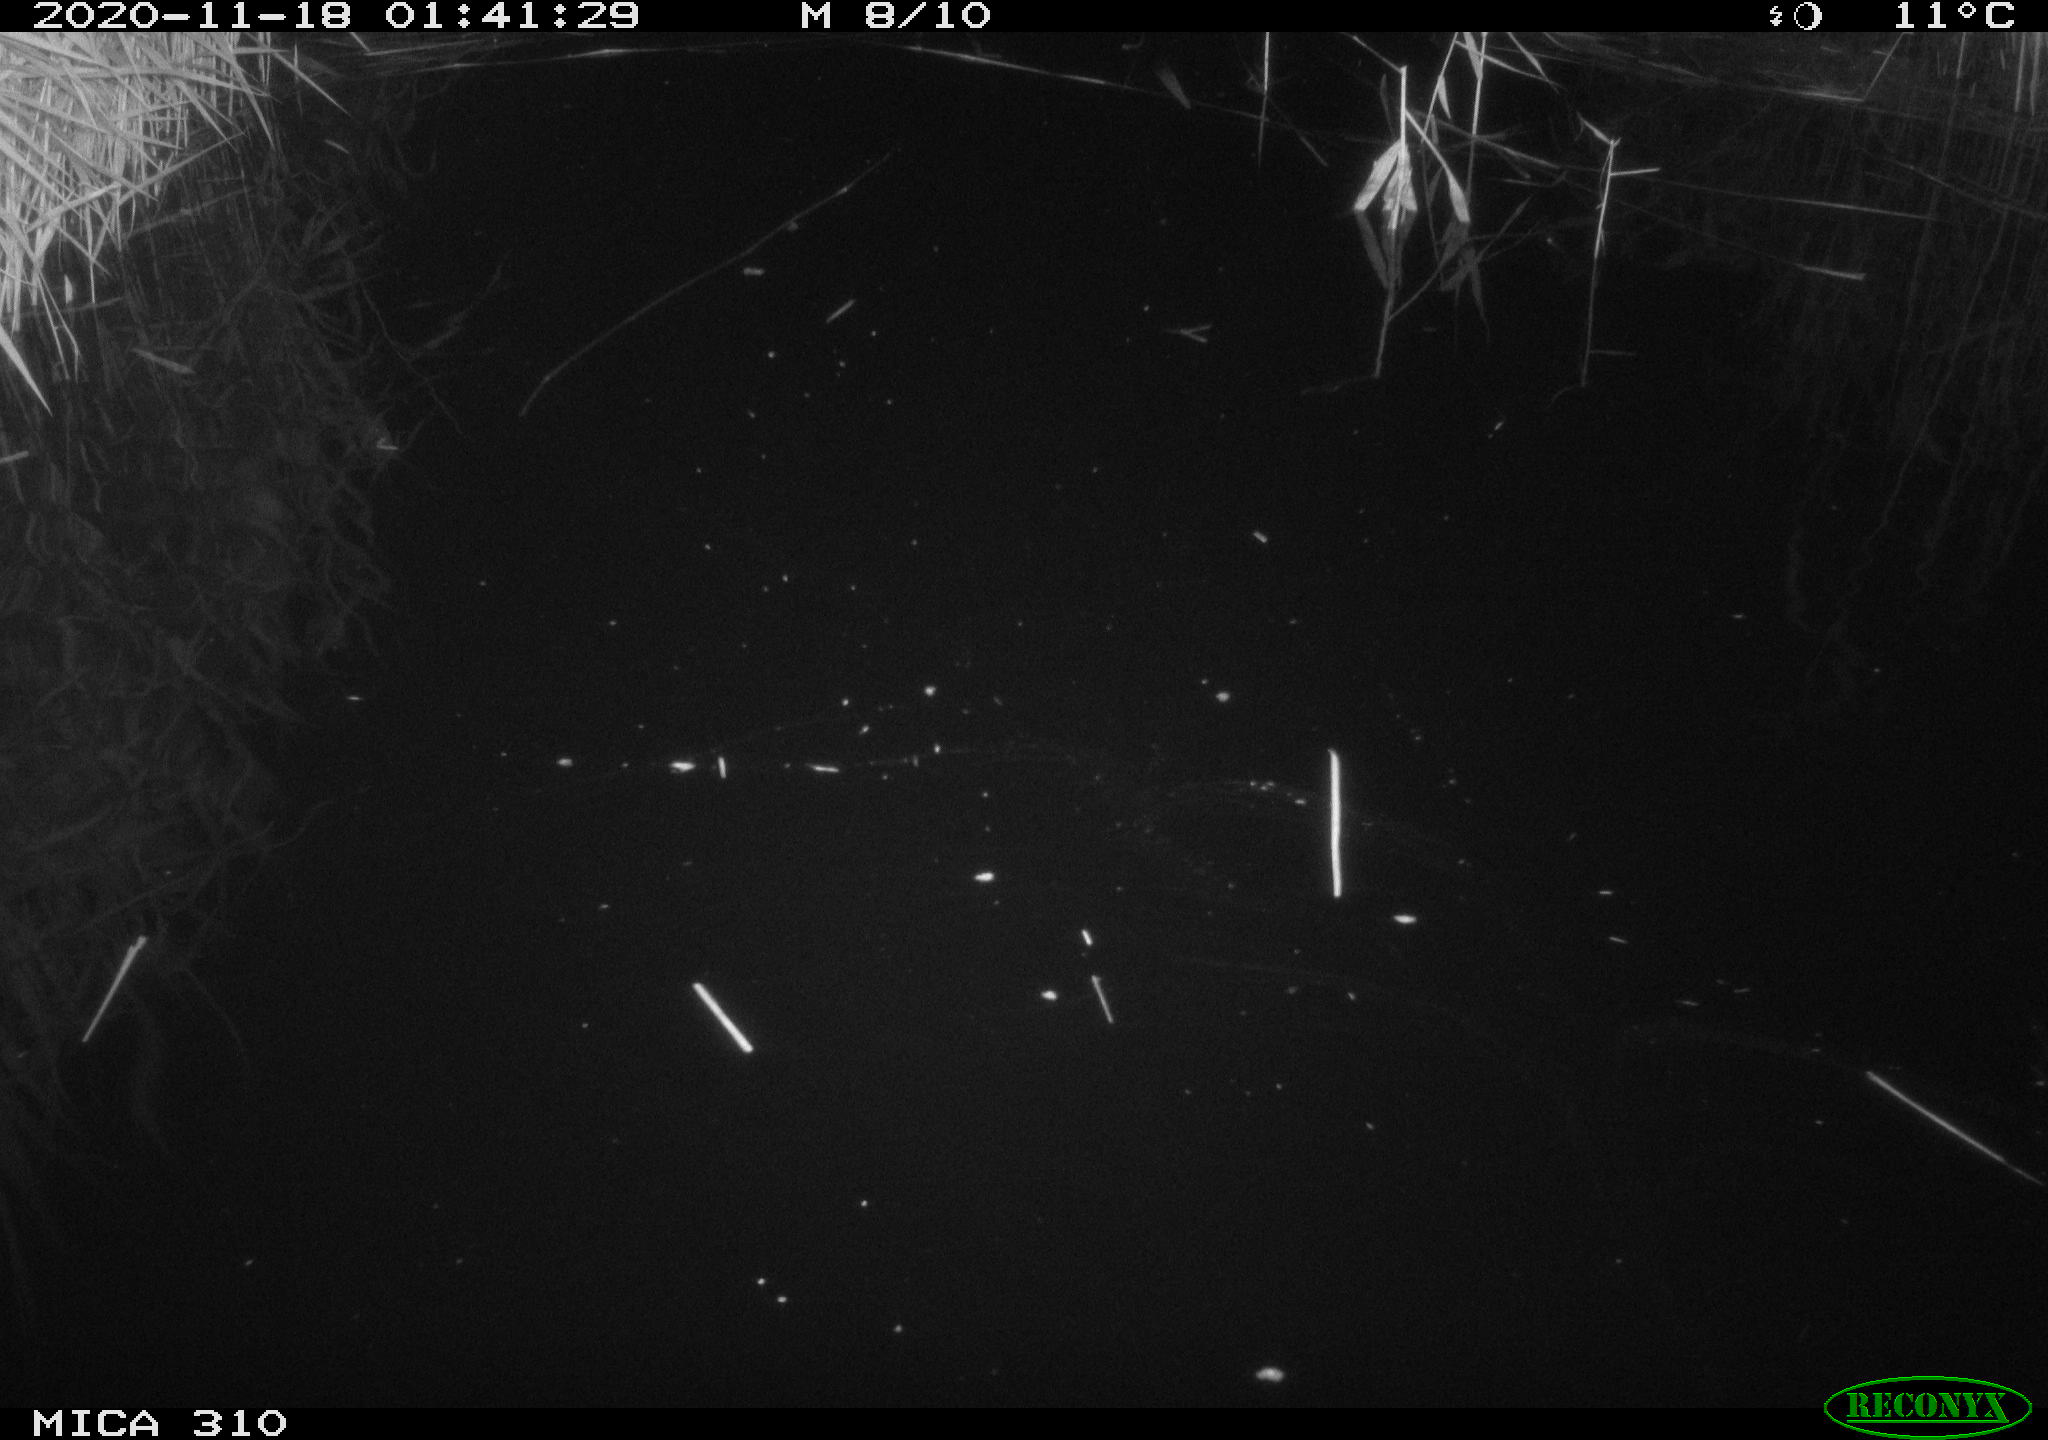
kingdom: Animalia
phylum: Chordata
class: Aves
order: Anseriformes
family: Anatidae
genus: Anas
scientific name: Anas platyrhynchos
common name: Mallard
